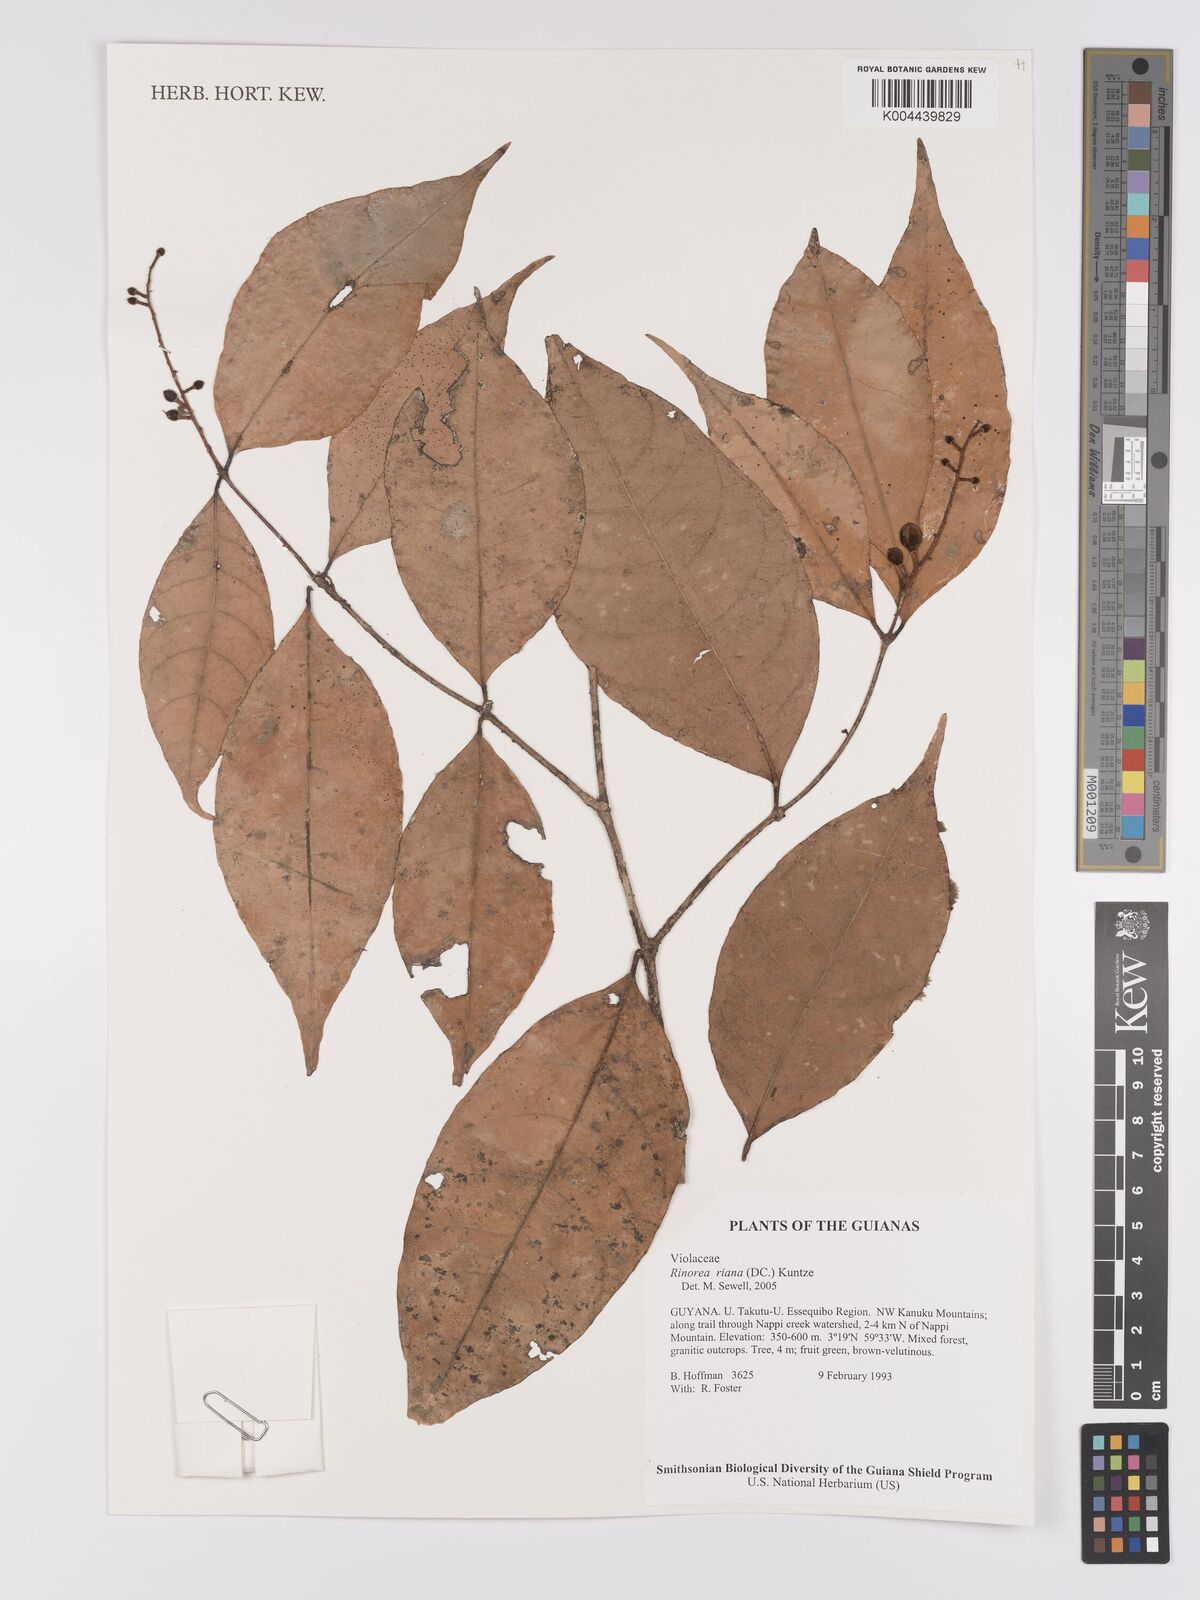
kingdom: Plantae
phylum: Tracheophyta
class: Magnoliopsida
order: Malpighiales
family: Violaceae
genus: Rinorea
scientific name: Rinorea riana
